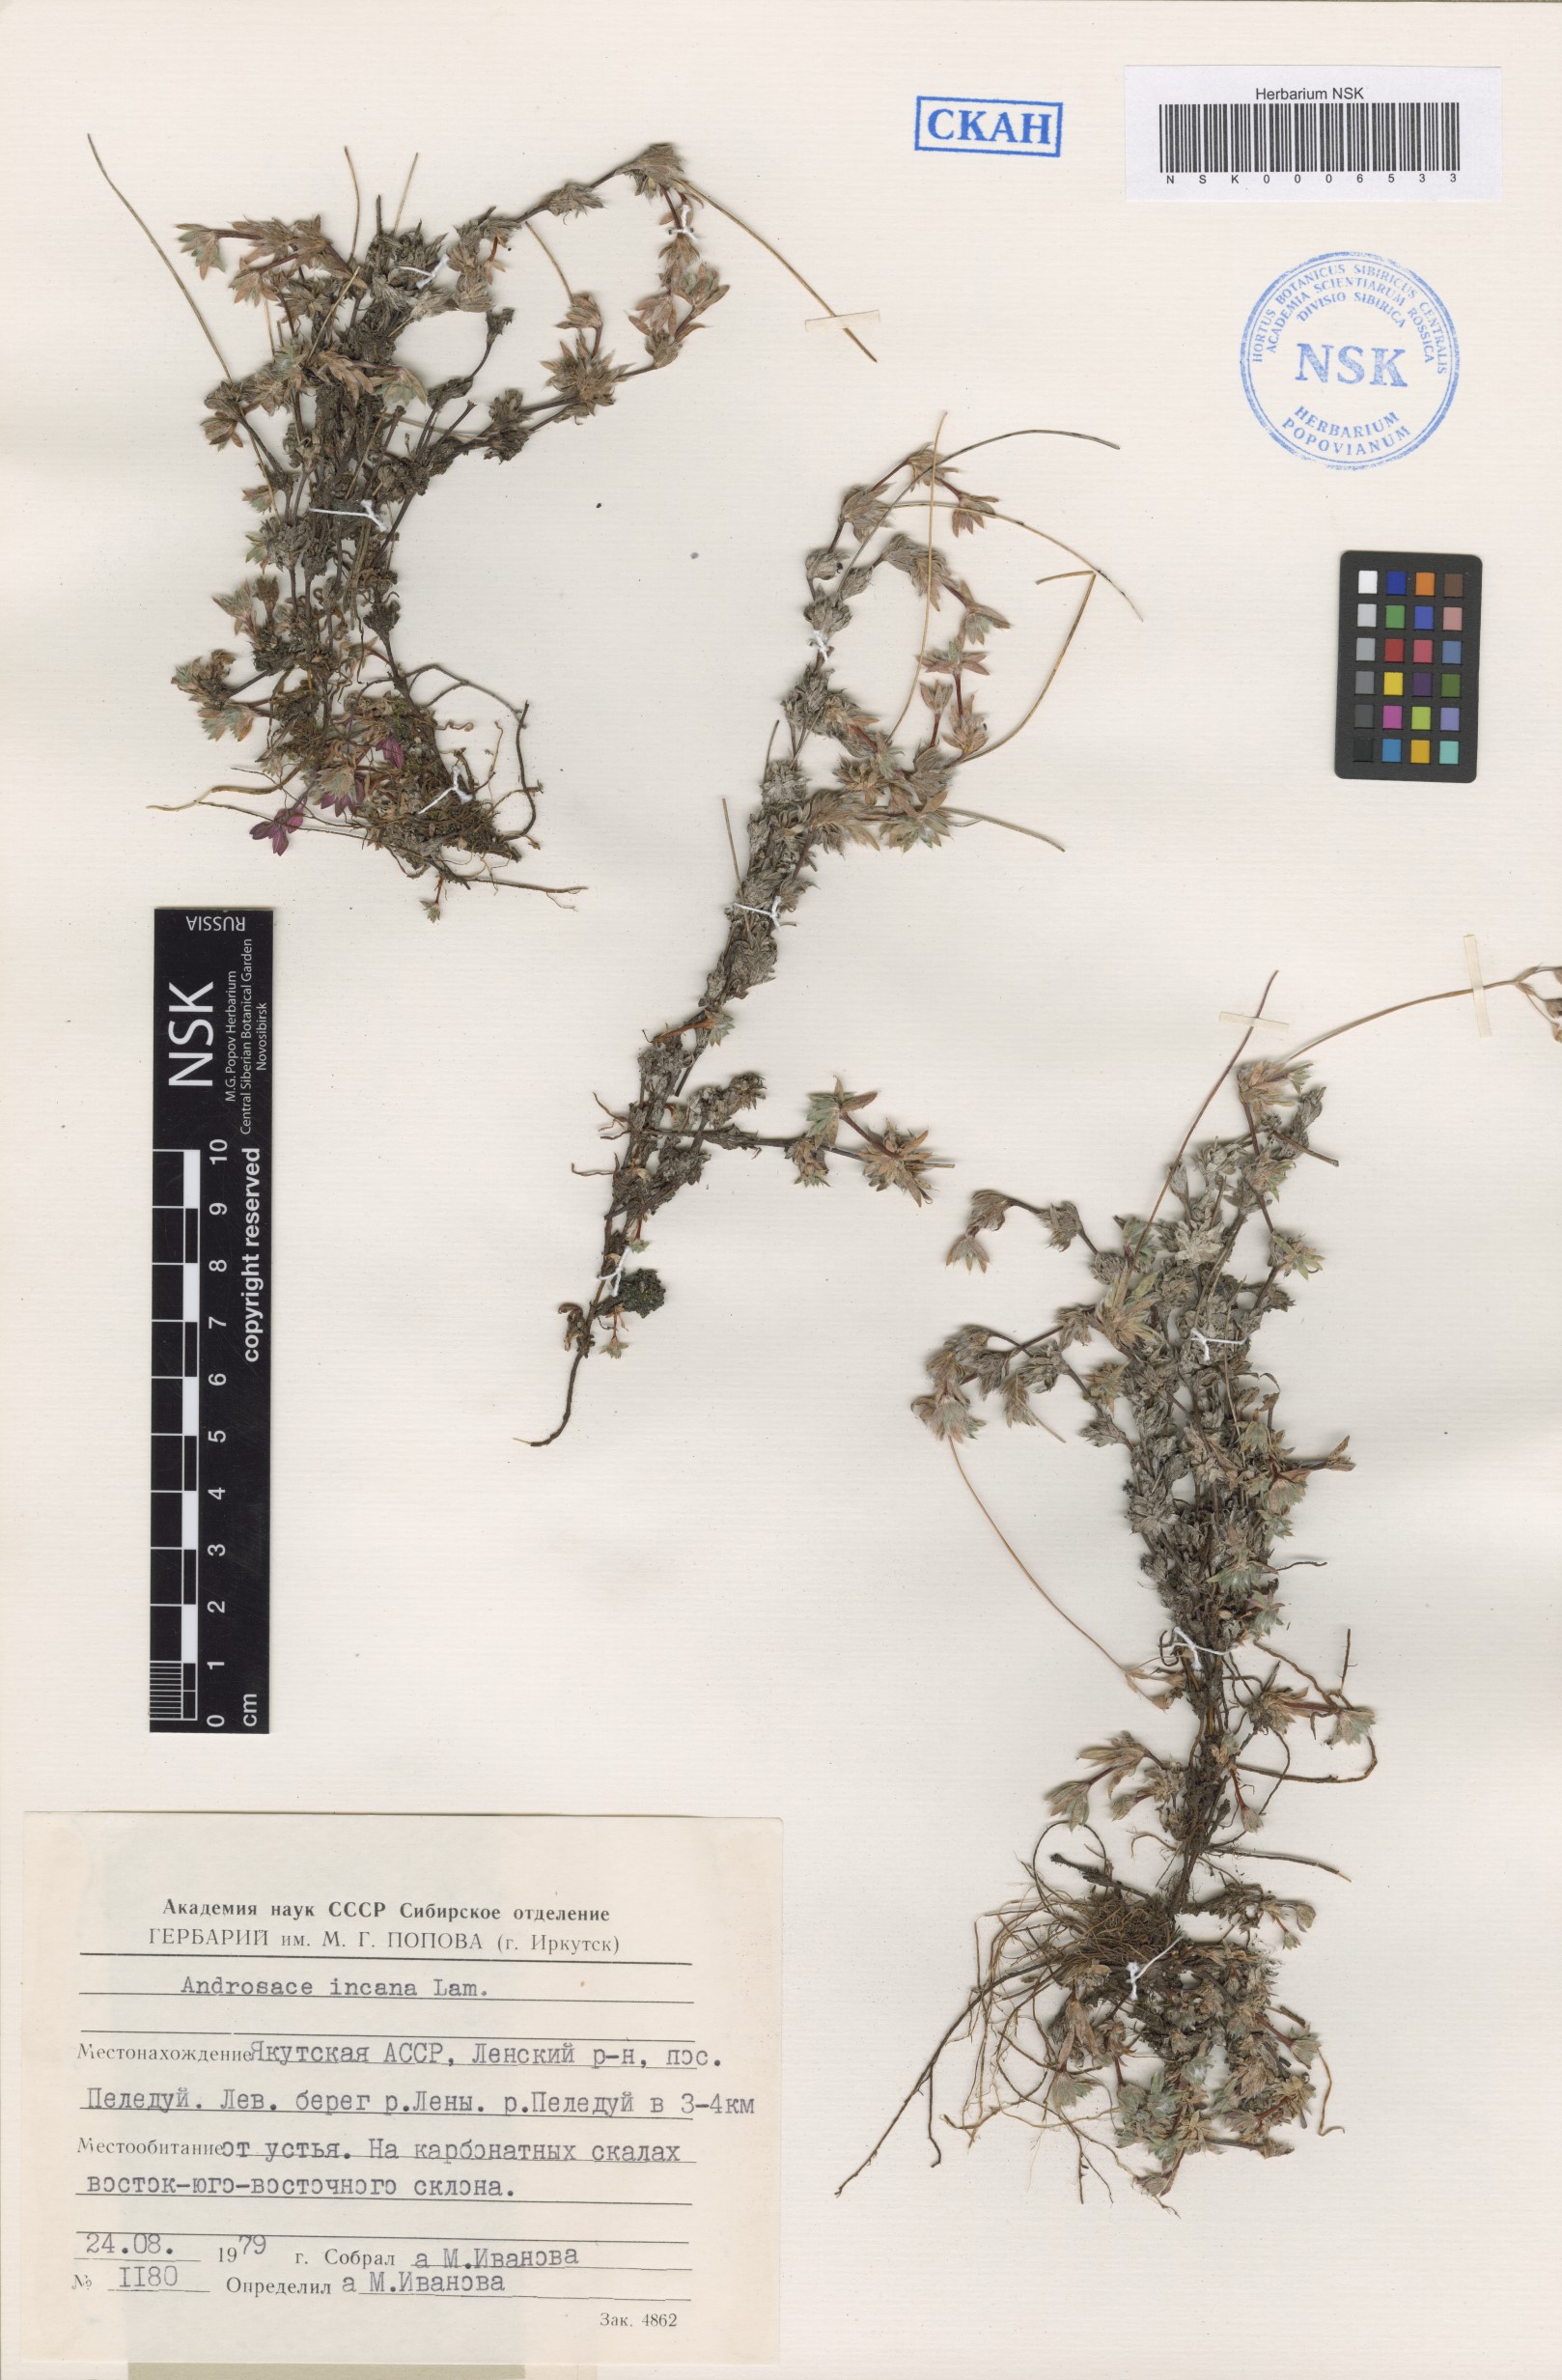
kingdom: Plantae
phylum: Tracheophyta
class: Magnoliopsida
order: Ericales
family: Primulaceae
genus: Androsace
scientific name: Androsace incana
